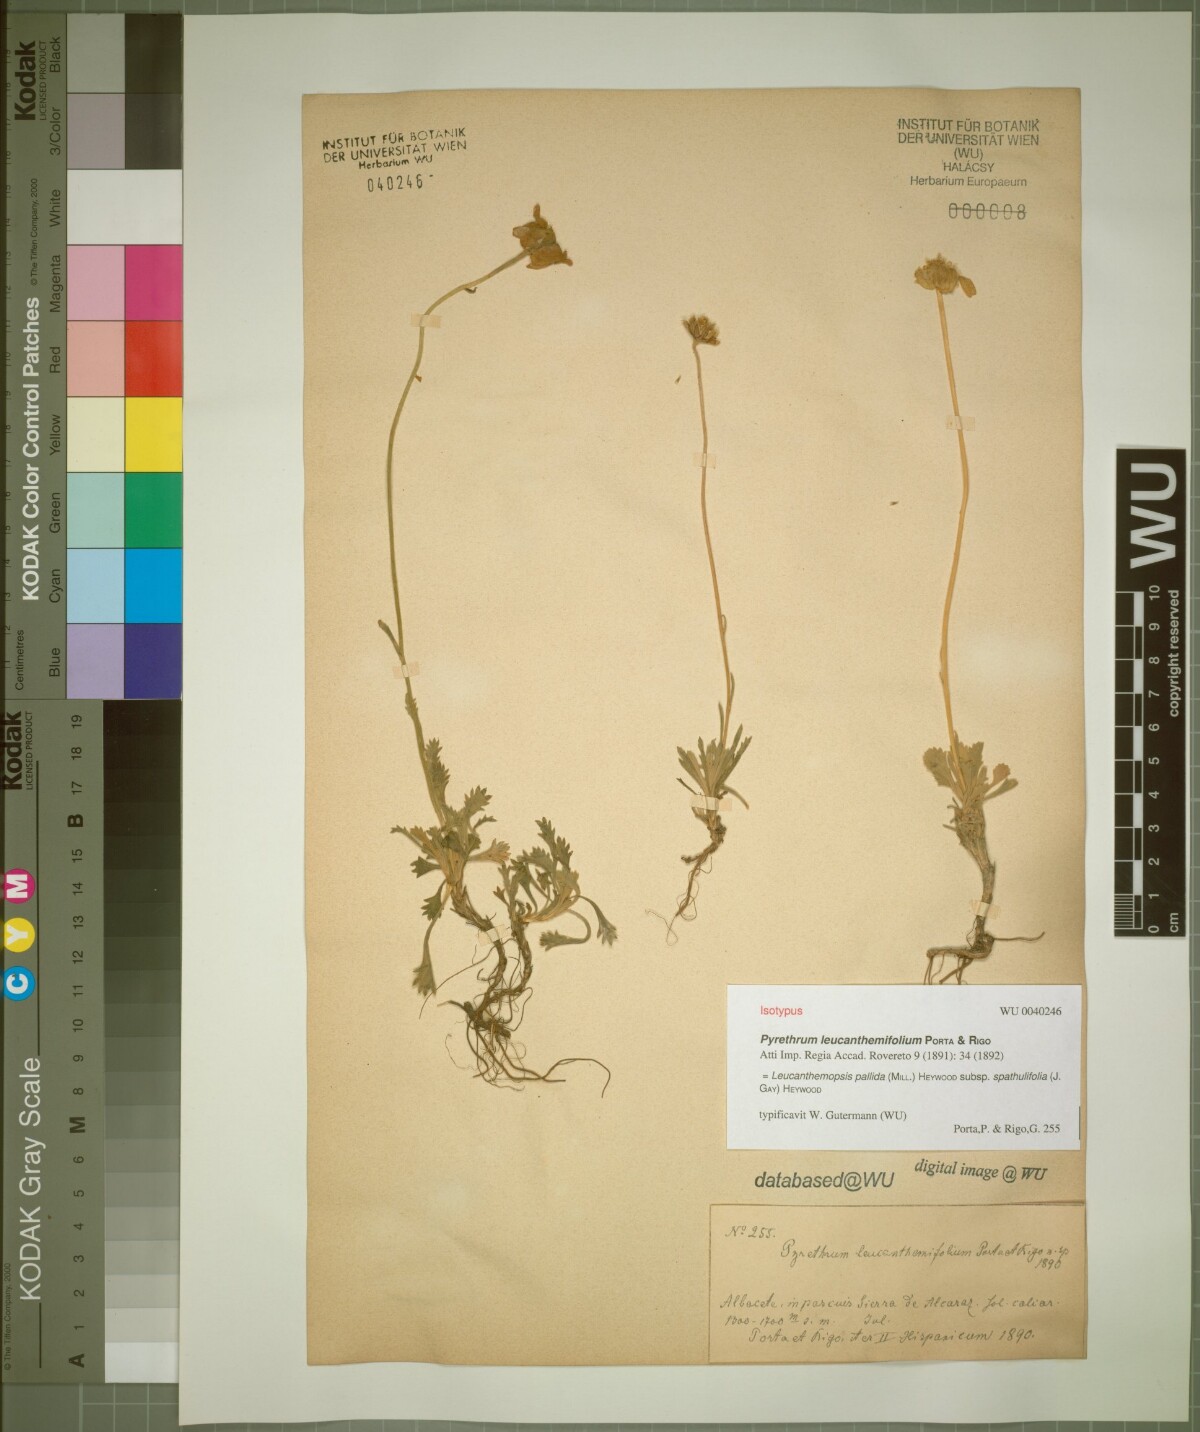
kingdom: Plantae
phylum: Tracheophyta
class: Magnoliopsida
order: Asterales
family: Asteraceae
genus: Leucanthemopsis
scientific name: Leucanthemopsis
